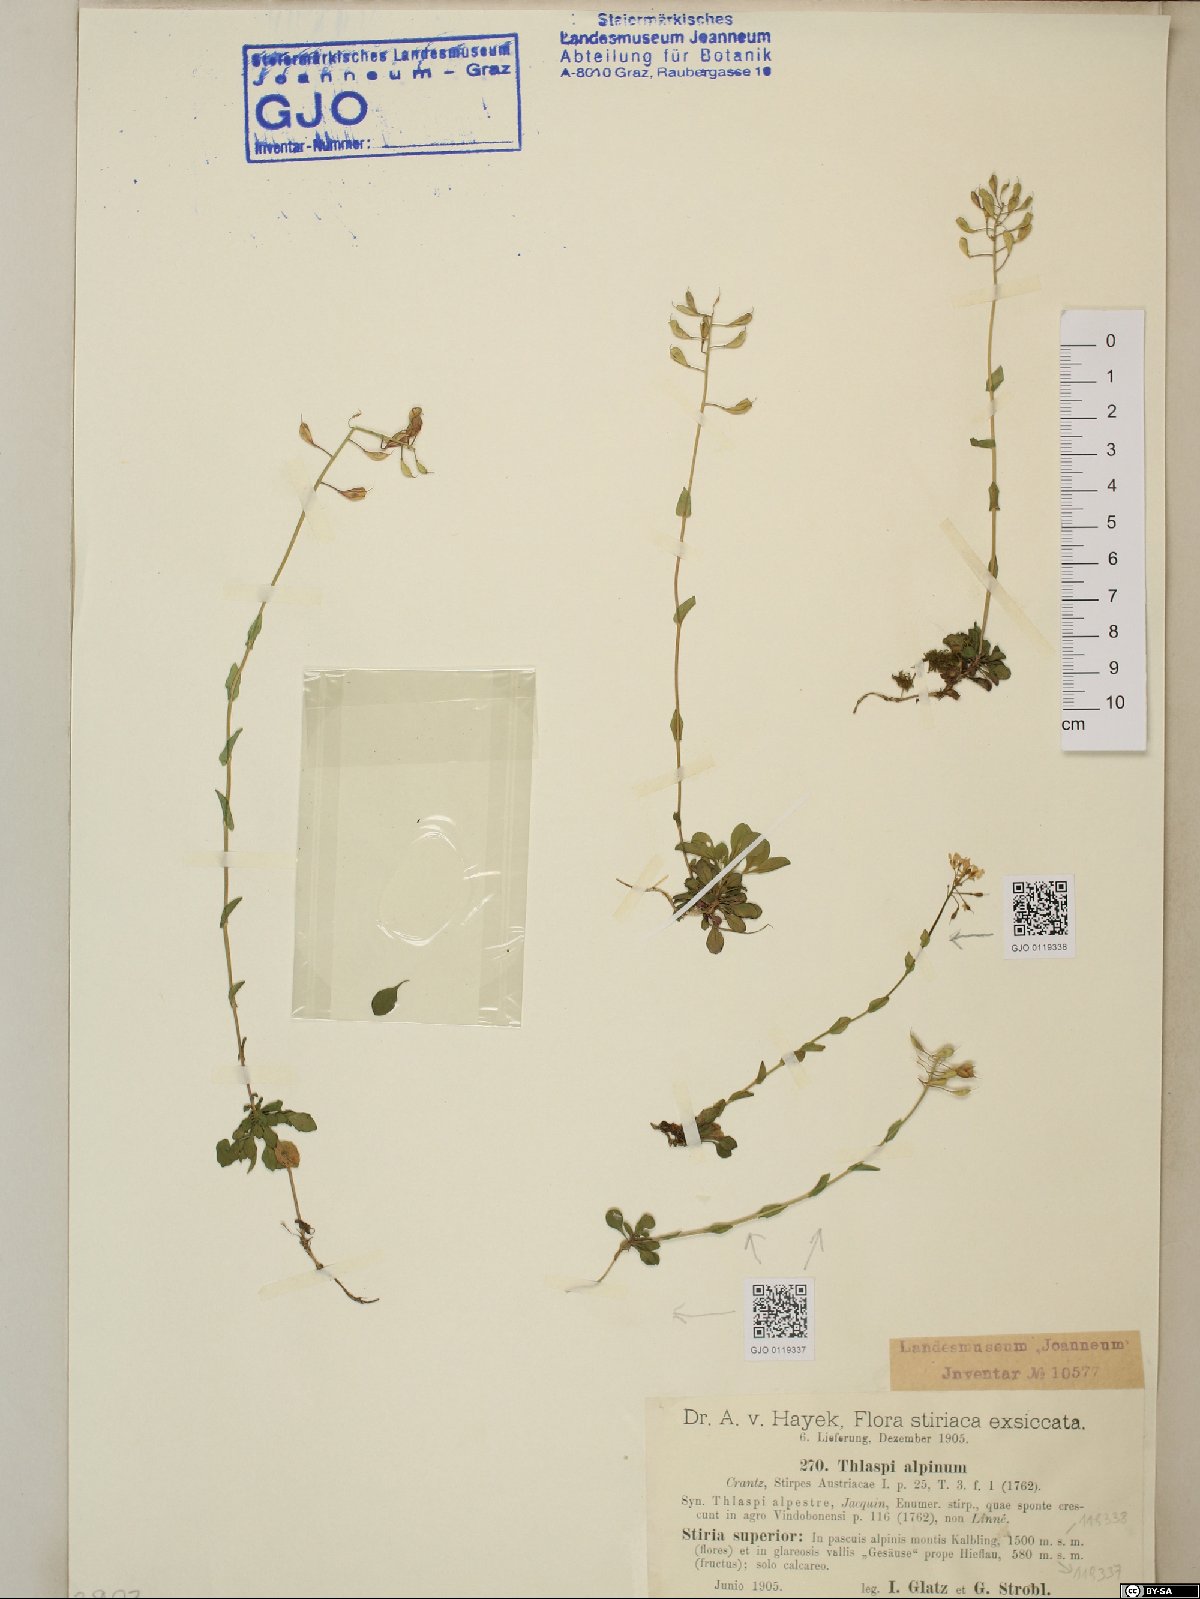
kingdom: Plantae
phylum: Tracheophyta
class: Magnoliopsida
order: Brassicales
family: Brassicaceae
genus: Noccaea
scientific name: Noccaea alpestris
